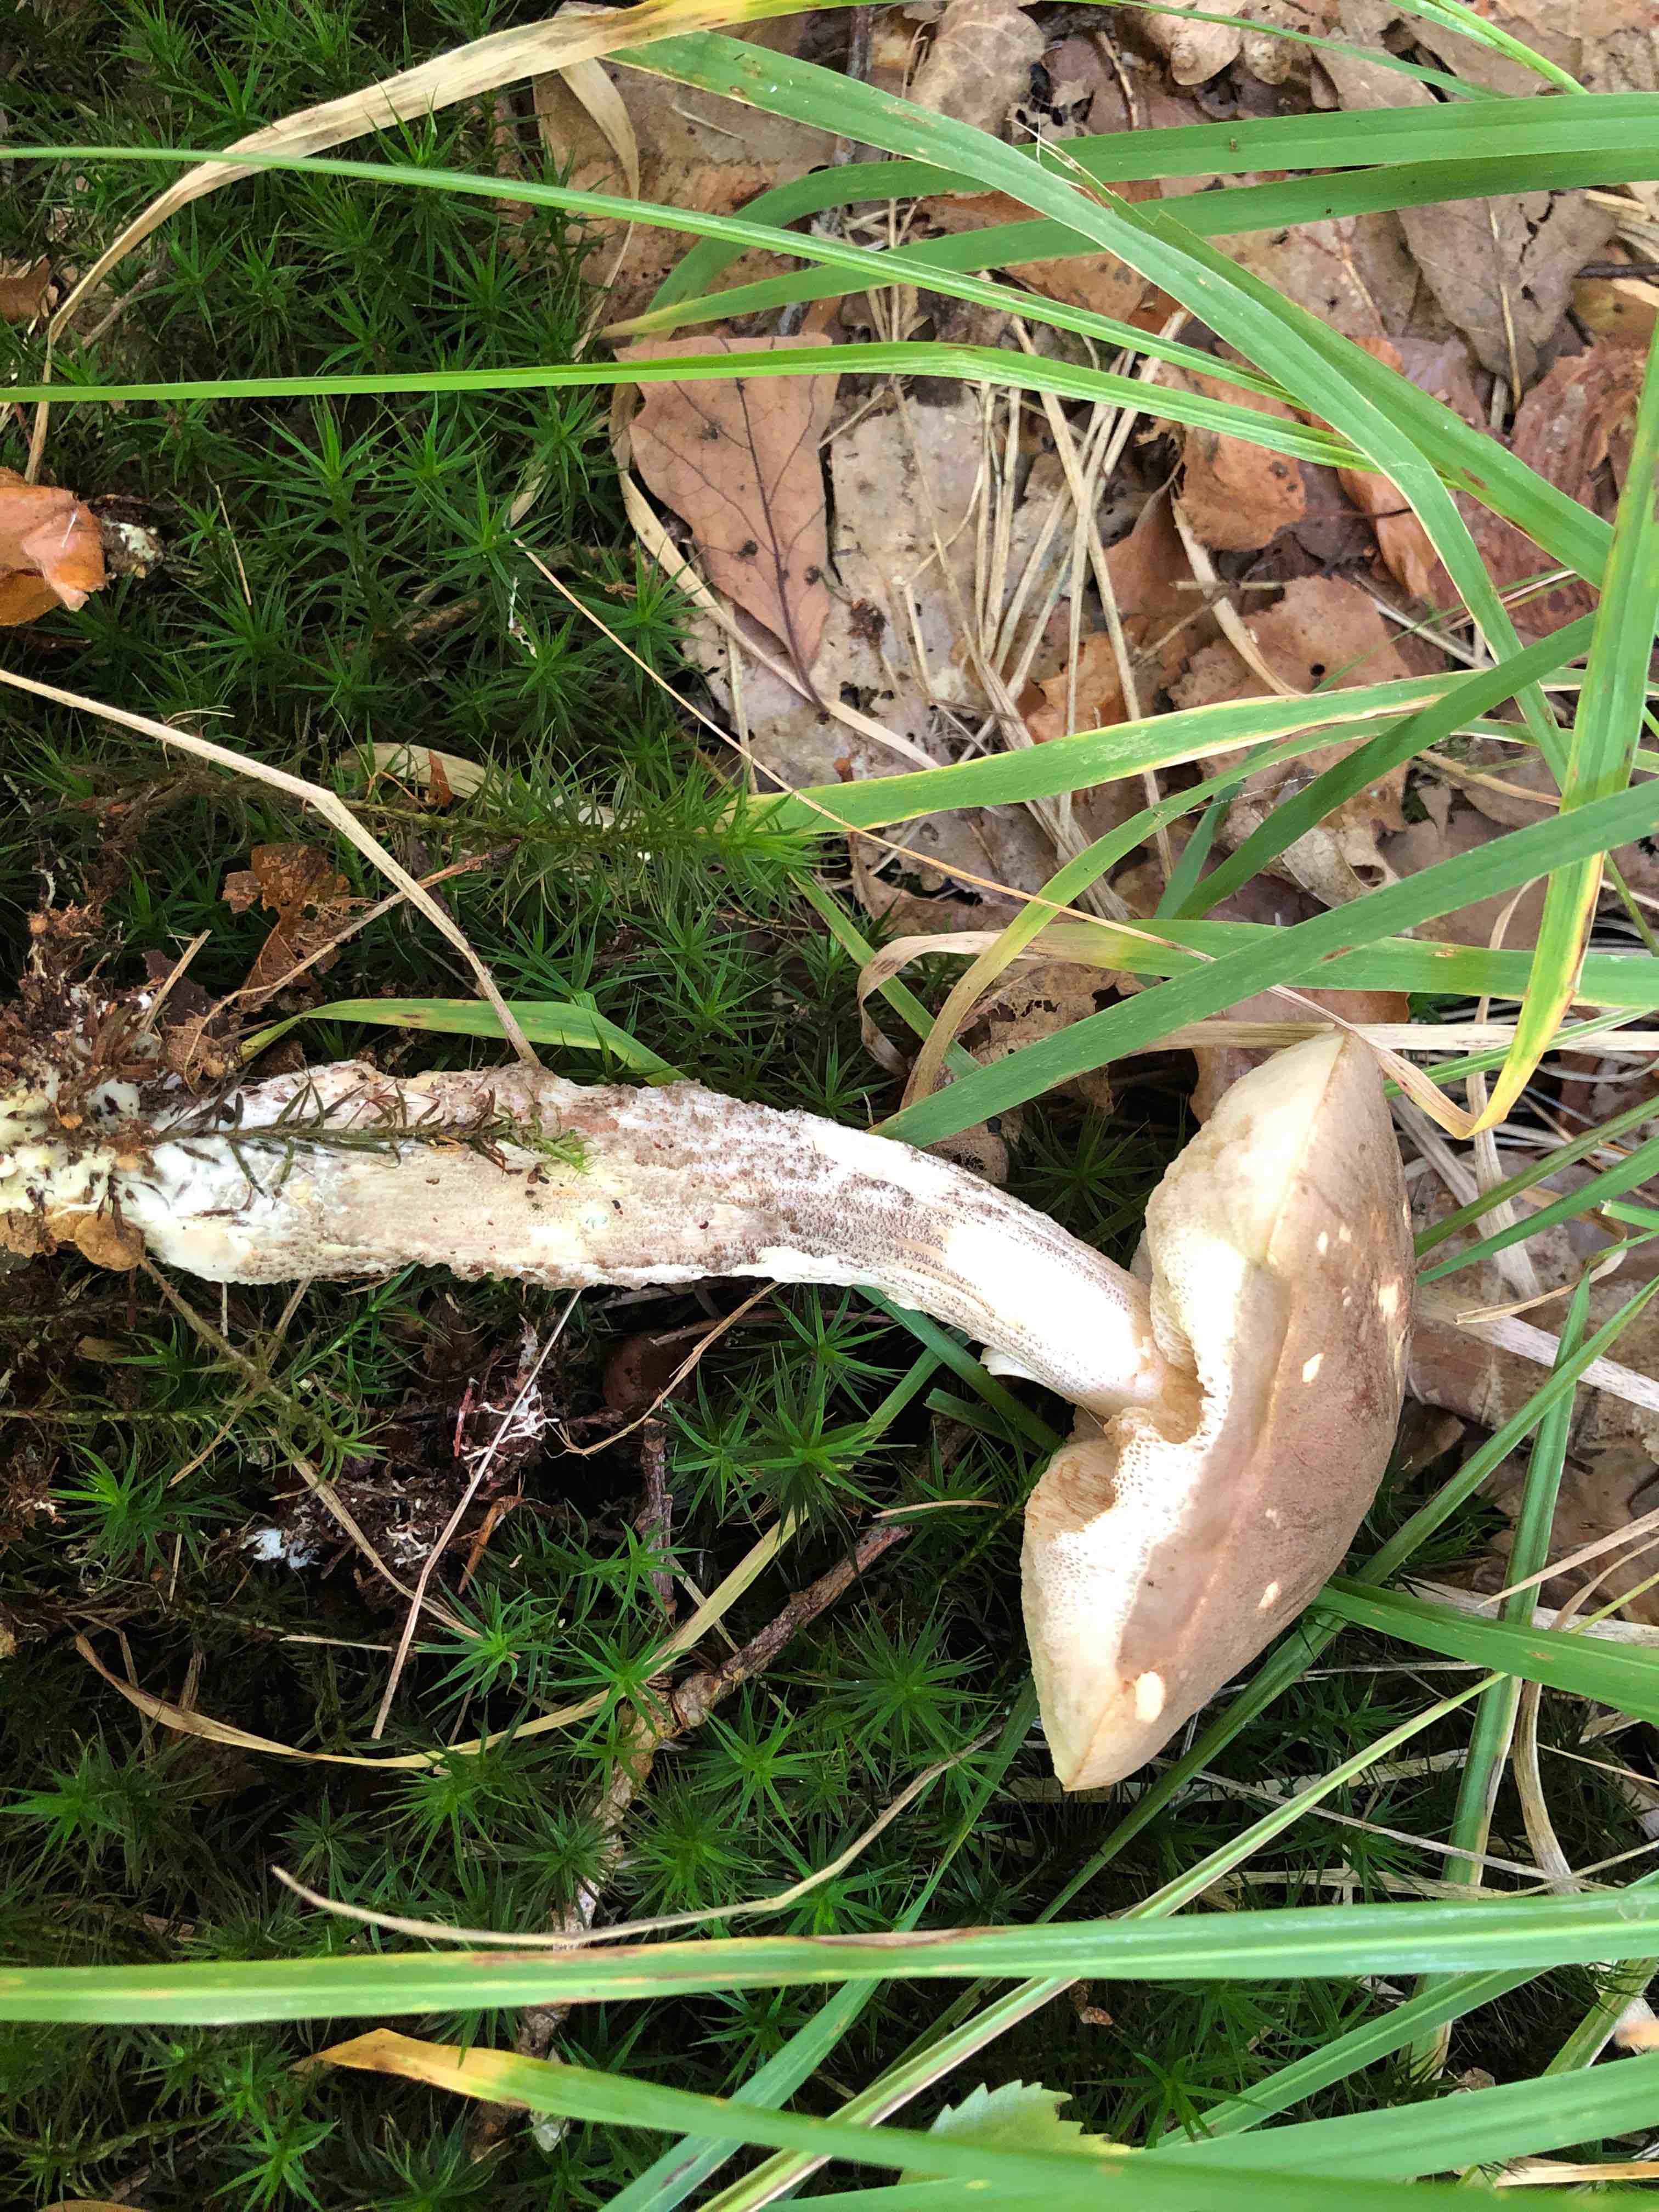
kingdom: Fungi
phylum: Basidiomycota
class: Agaricomycetes
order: Boletales
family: Boletaceae
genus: Leccinum
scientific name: Leccinum
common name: skælrørhat
